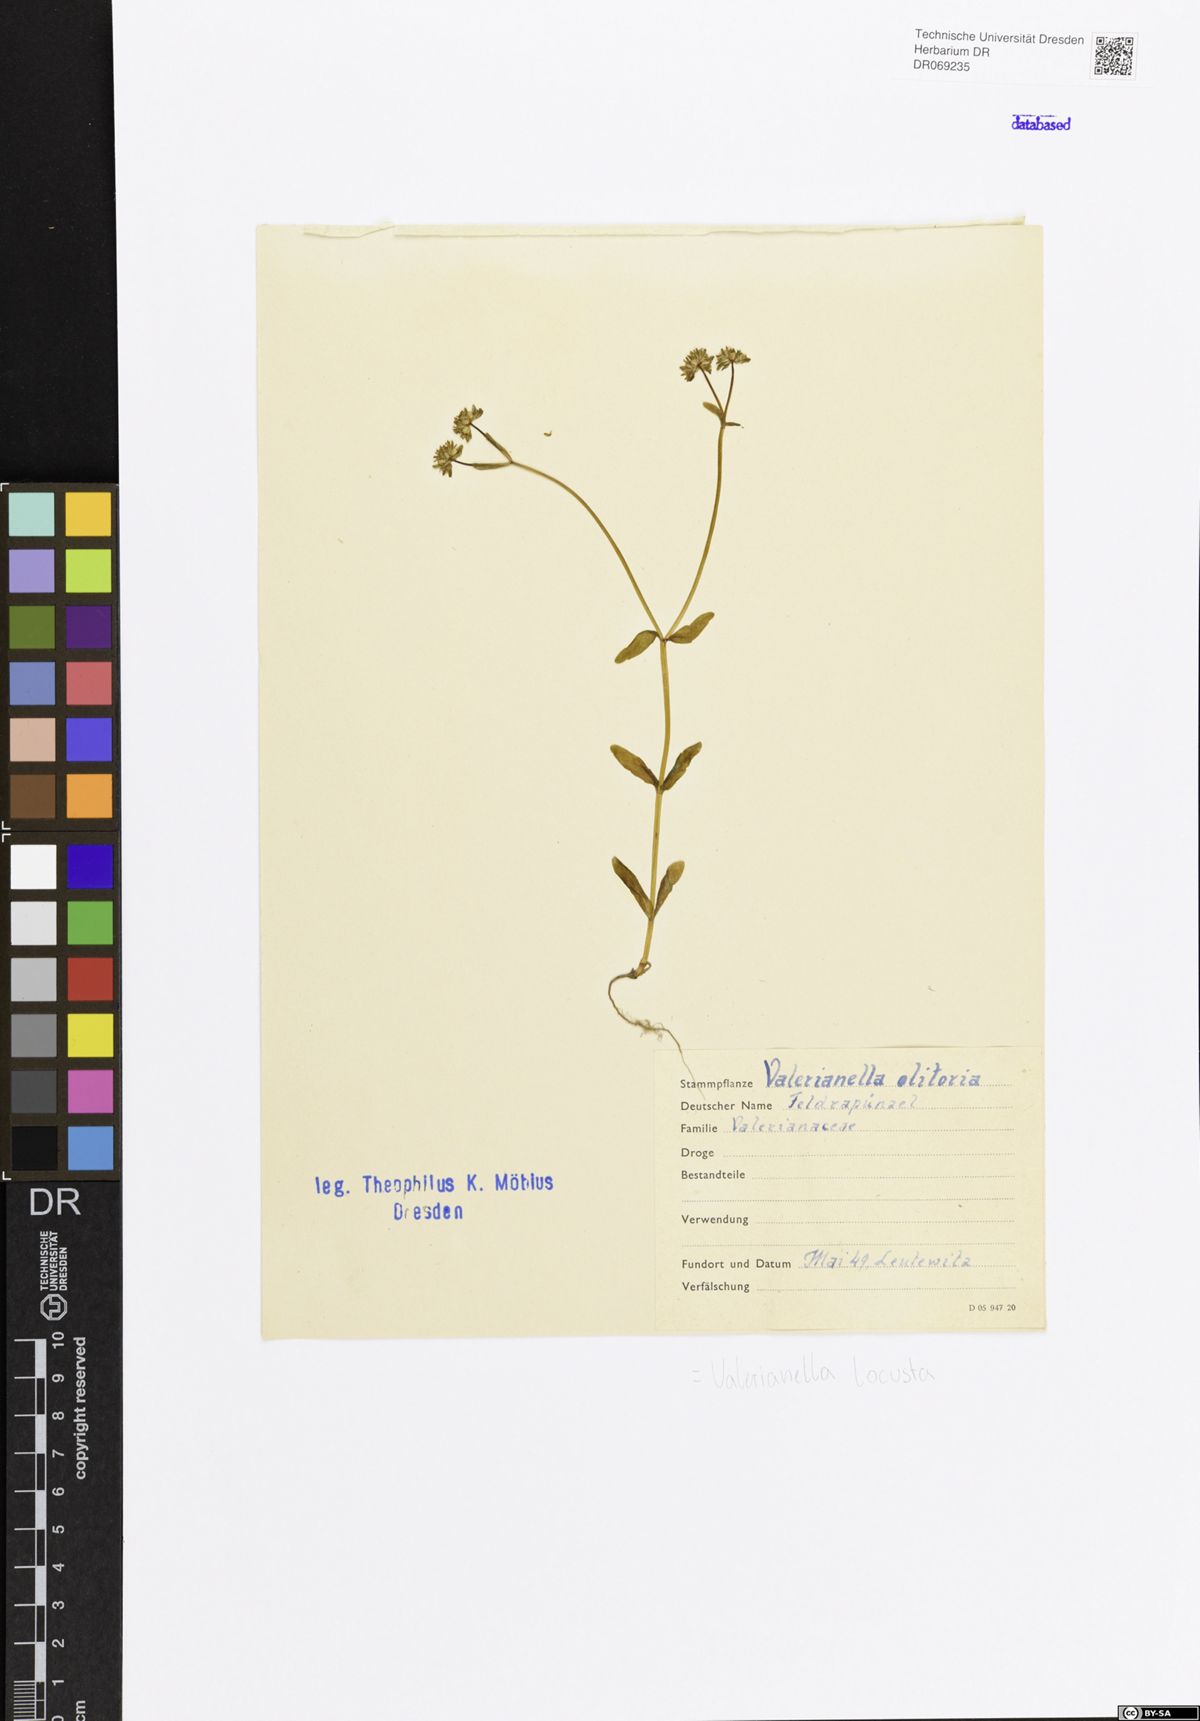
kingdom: Plantae
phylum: Tracheophyta
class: Magnoliopsida
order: Dipsacales
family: Caprifoliaceae
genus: Valerianella
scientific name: Valerianella locusta
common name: Common cornsalad
